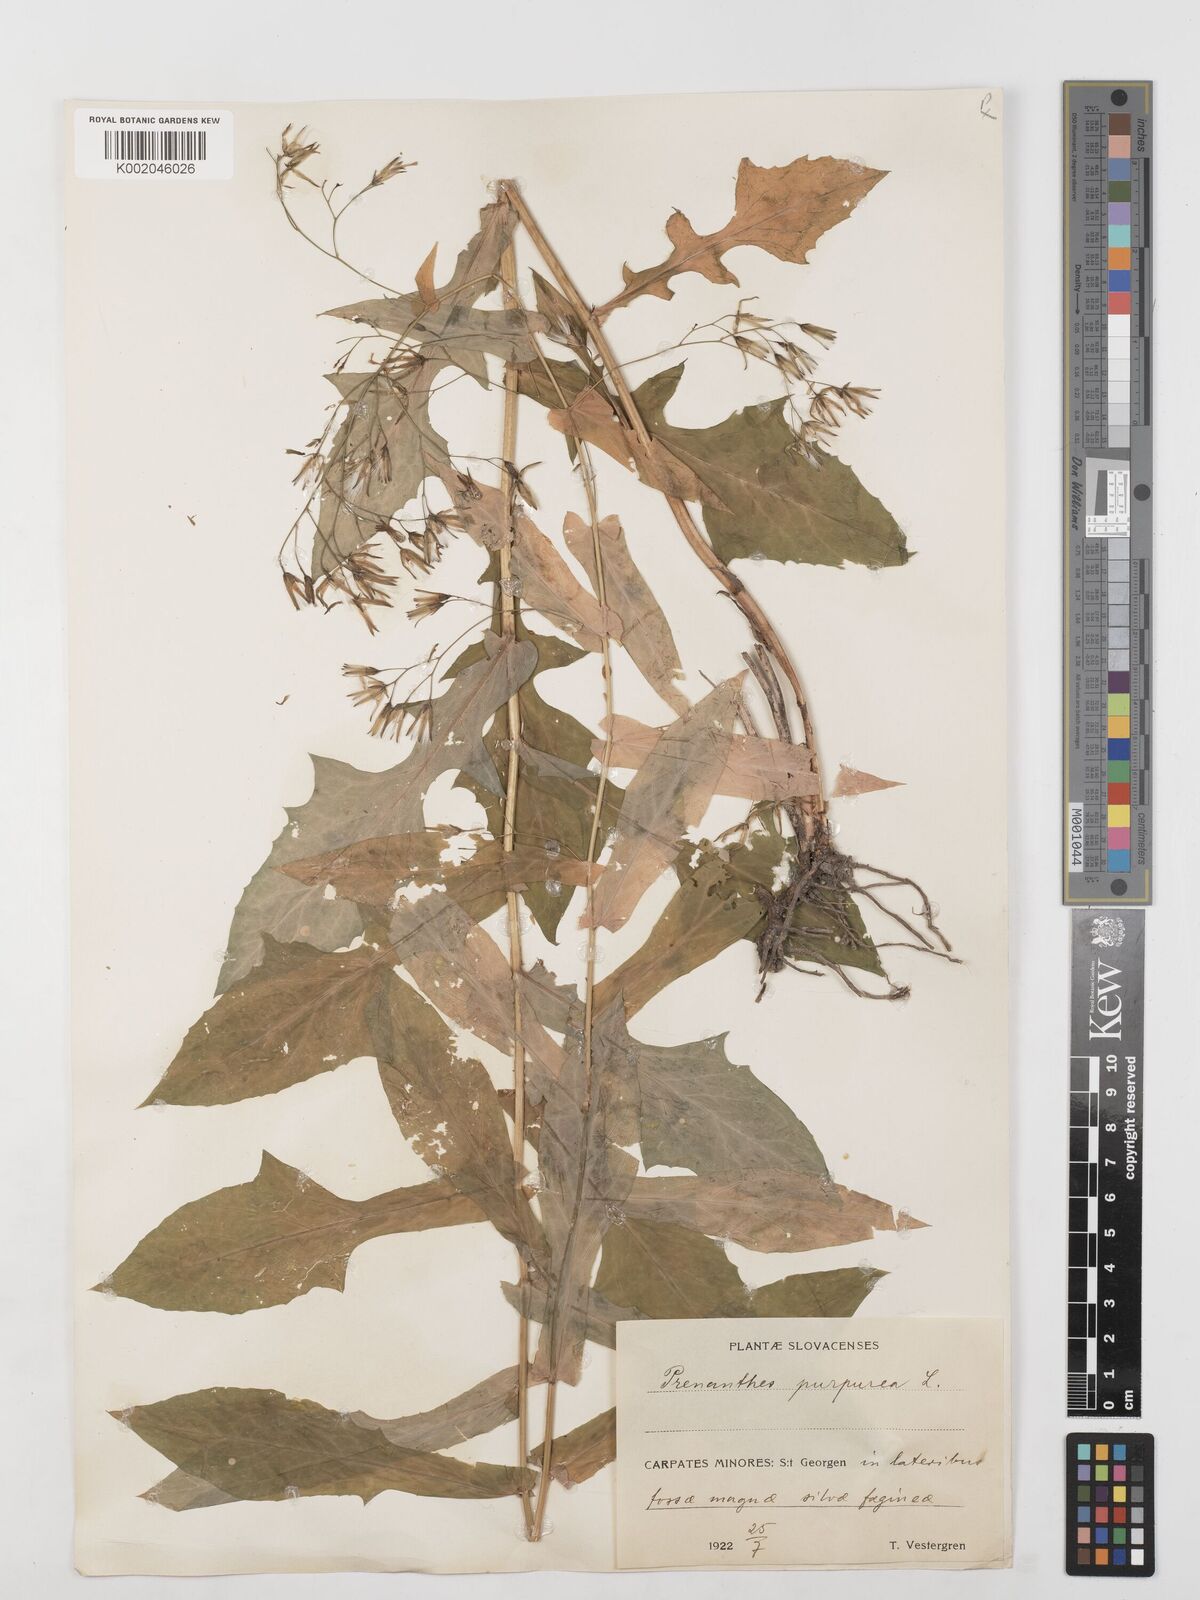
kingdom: Plantae
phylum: Tracheophyta
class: Magnoliopsida
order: Asterales
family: Asteraceae
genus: Prenanthes
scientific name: Prenanthes purpurea
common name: Purple lettuce
